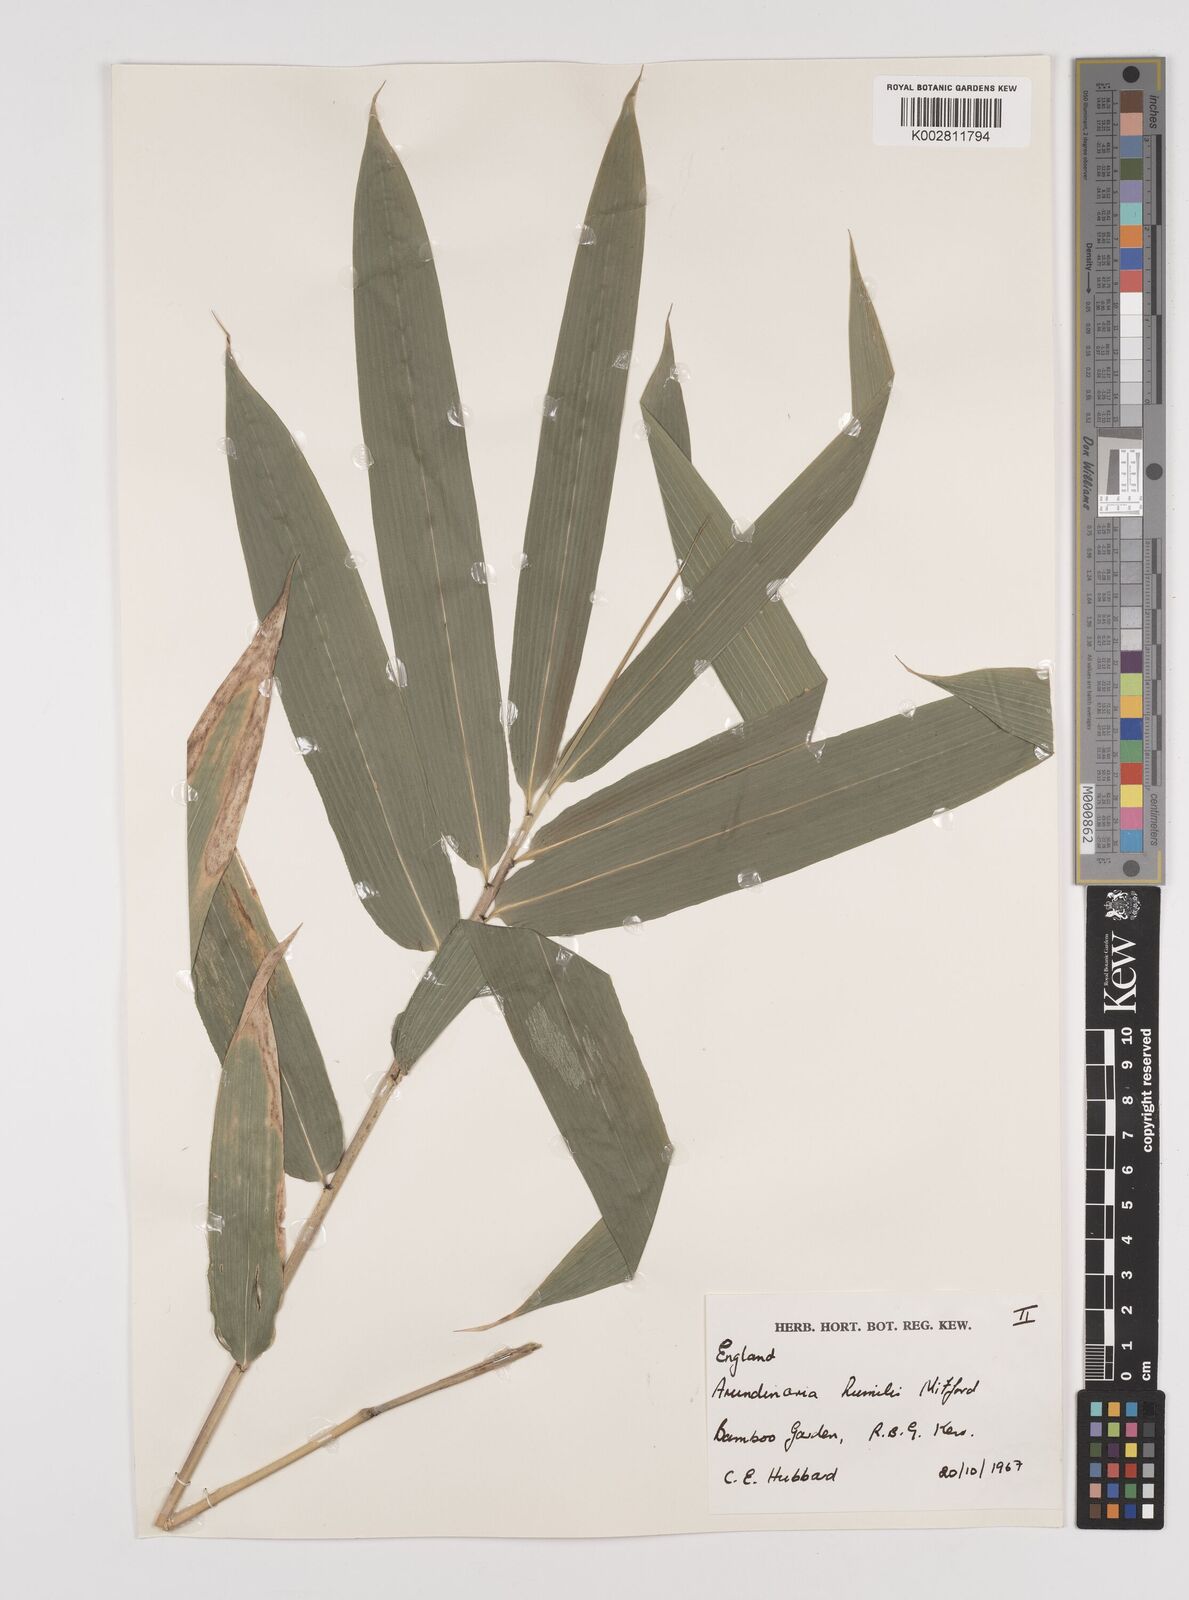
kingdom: Plantae
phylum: Tracheophyta
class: Liliopsida
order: Poales
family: Poaceae
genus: Pseudosasa
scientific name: Pseudosasa humilis
